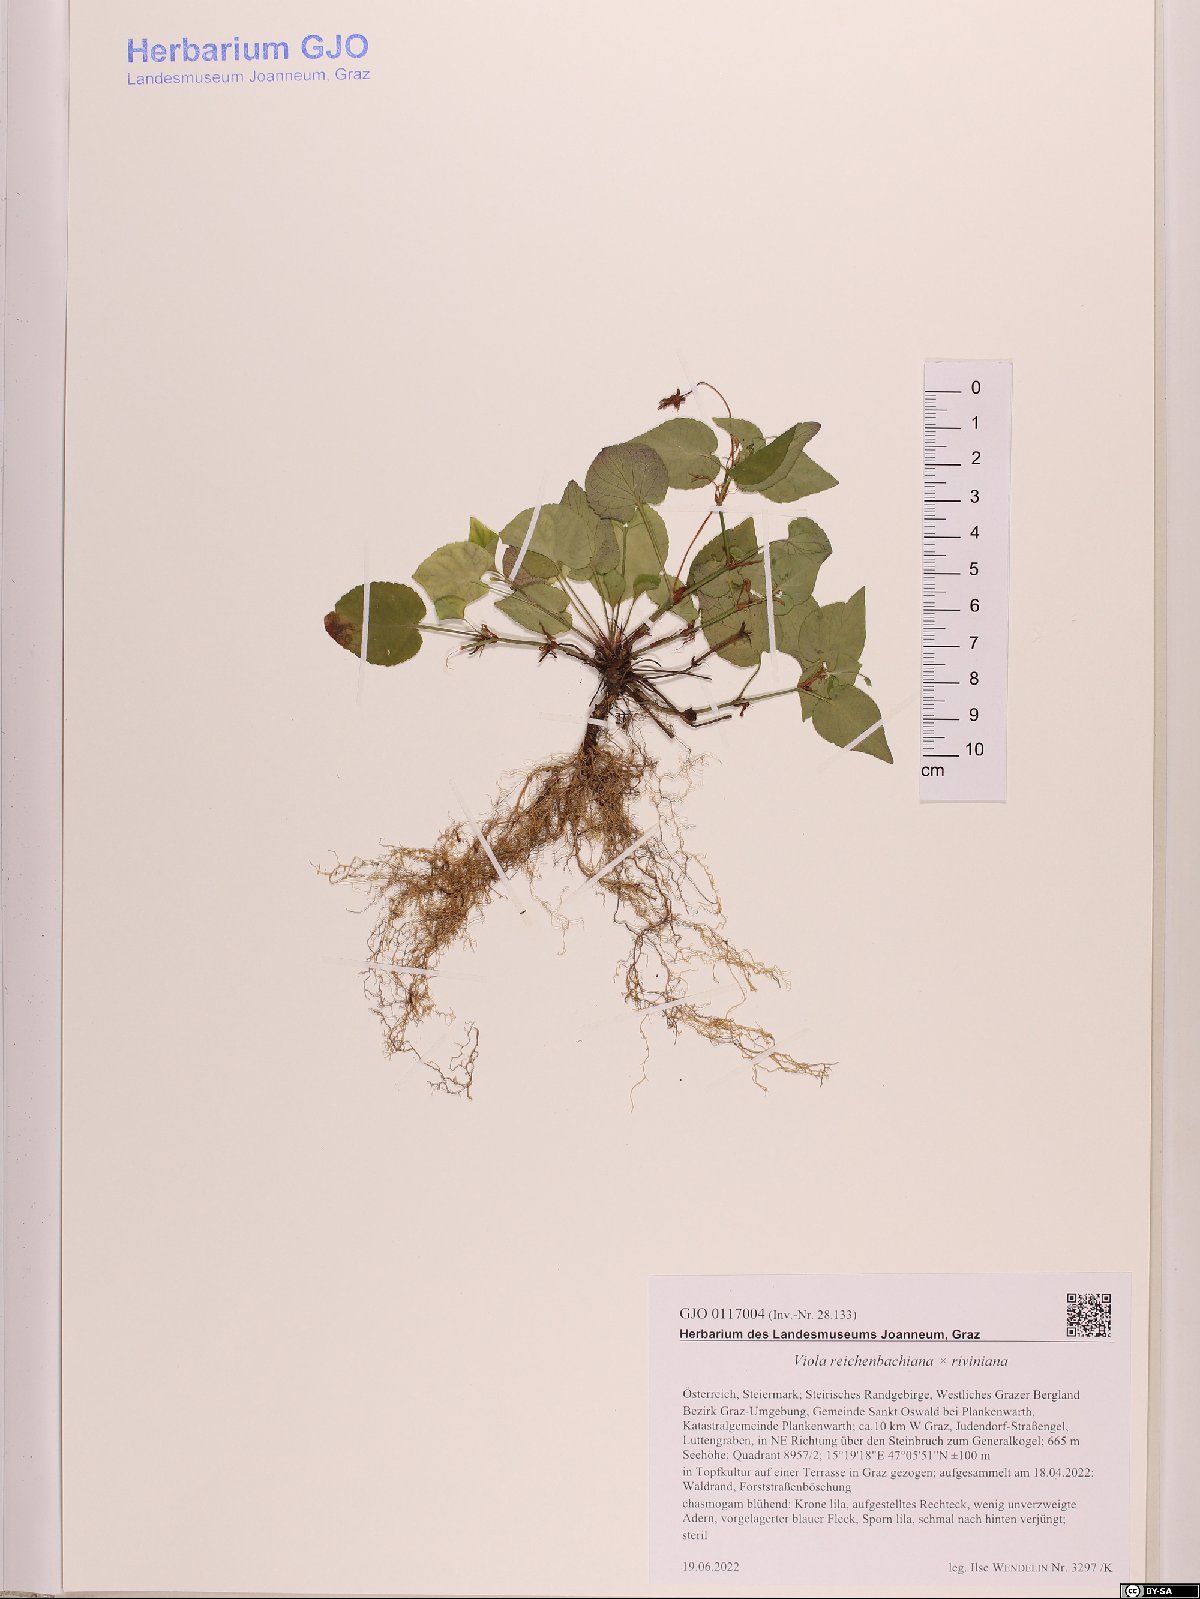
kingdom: Plantae
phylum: Tracheophyta
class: Magnoliopsida
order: Malpighiales
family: Violaceae
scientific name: Violaceae
